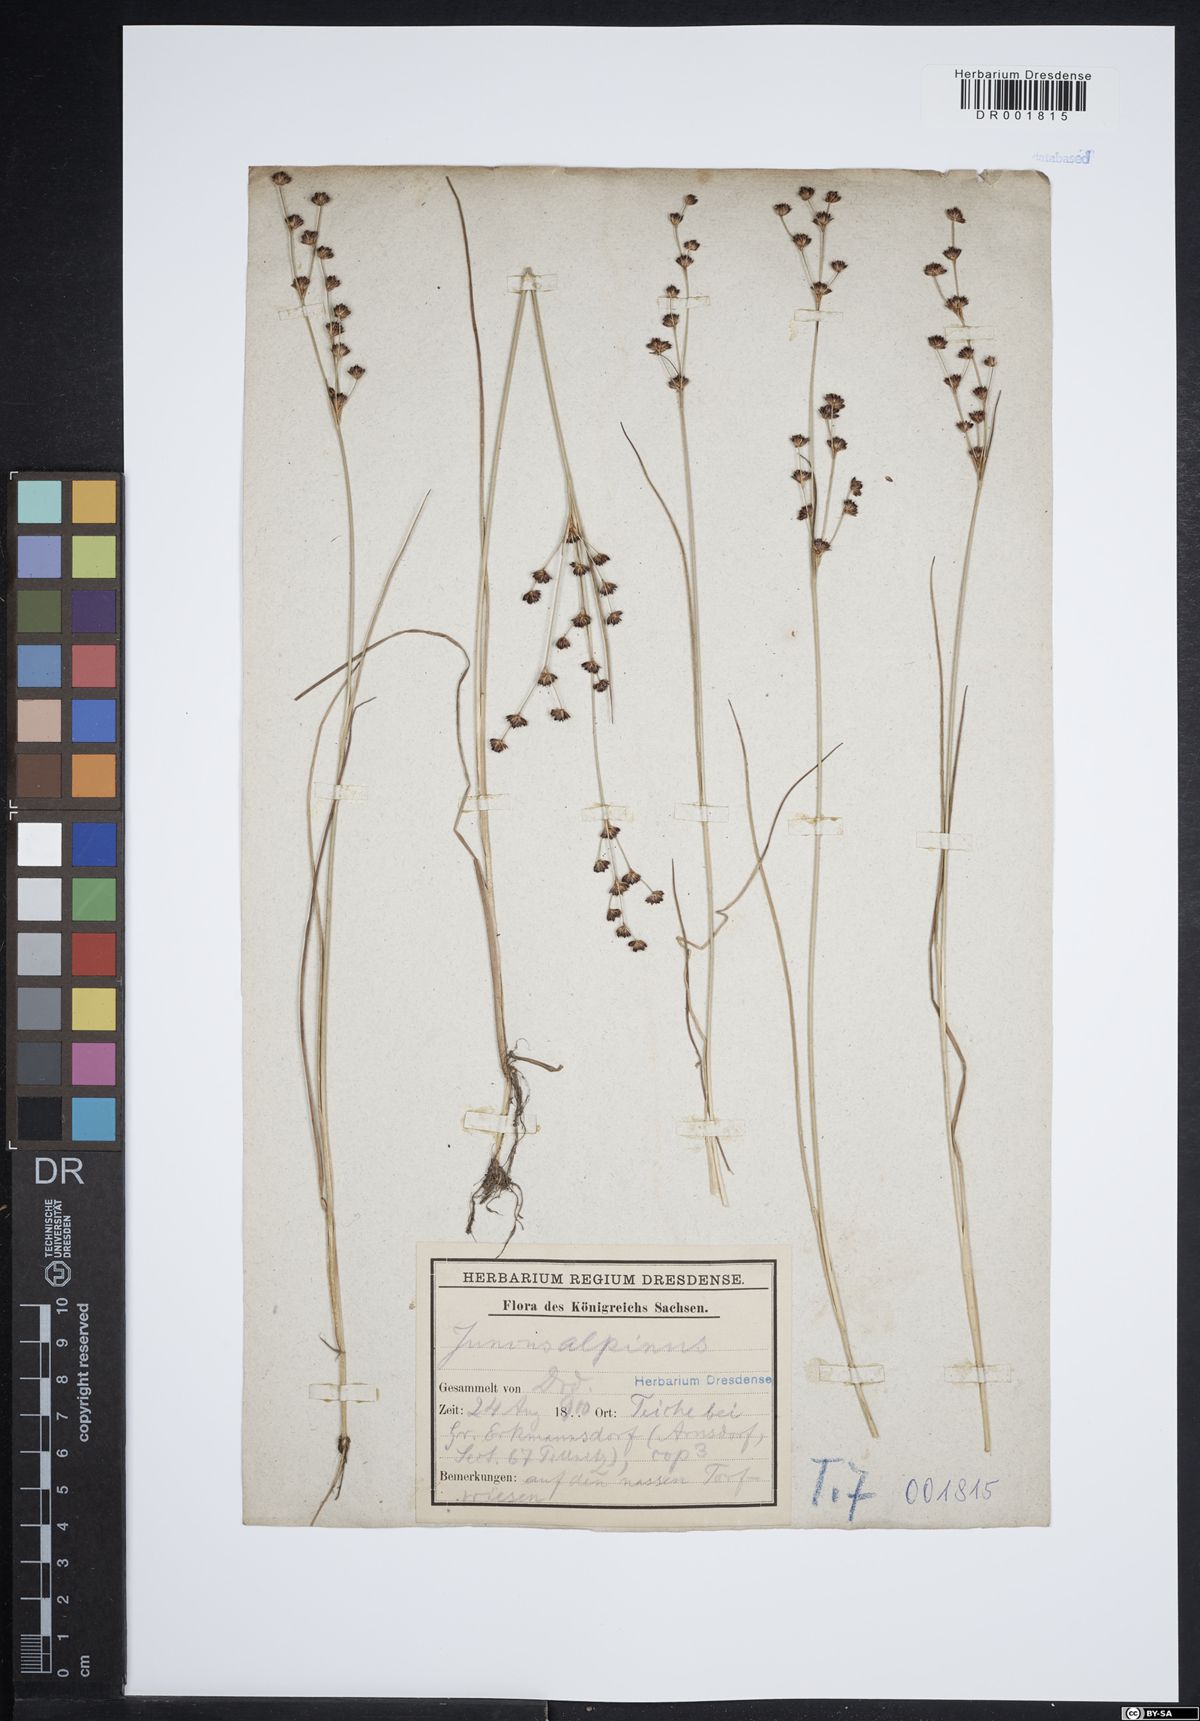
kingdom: Plantae
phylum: Tracheophyta
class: Liliopsida
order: Poales
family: Juncaceae
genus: Juncus
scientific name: Juncus alpinoarticulatus
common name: Alpine rush
